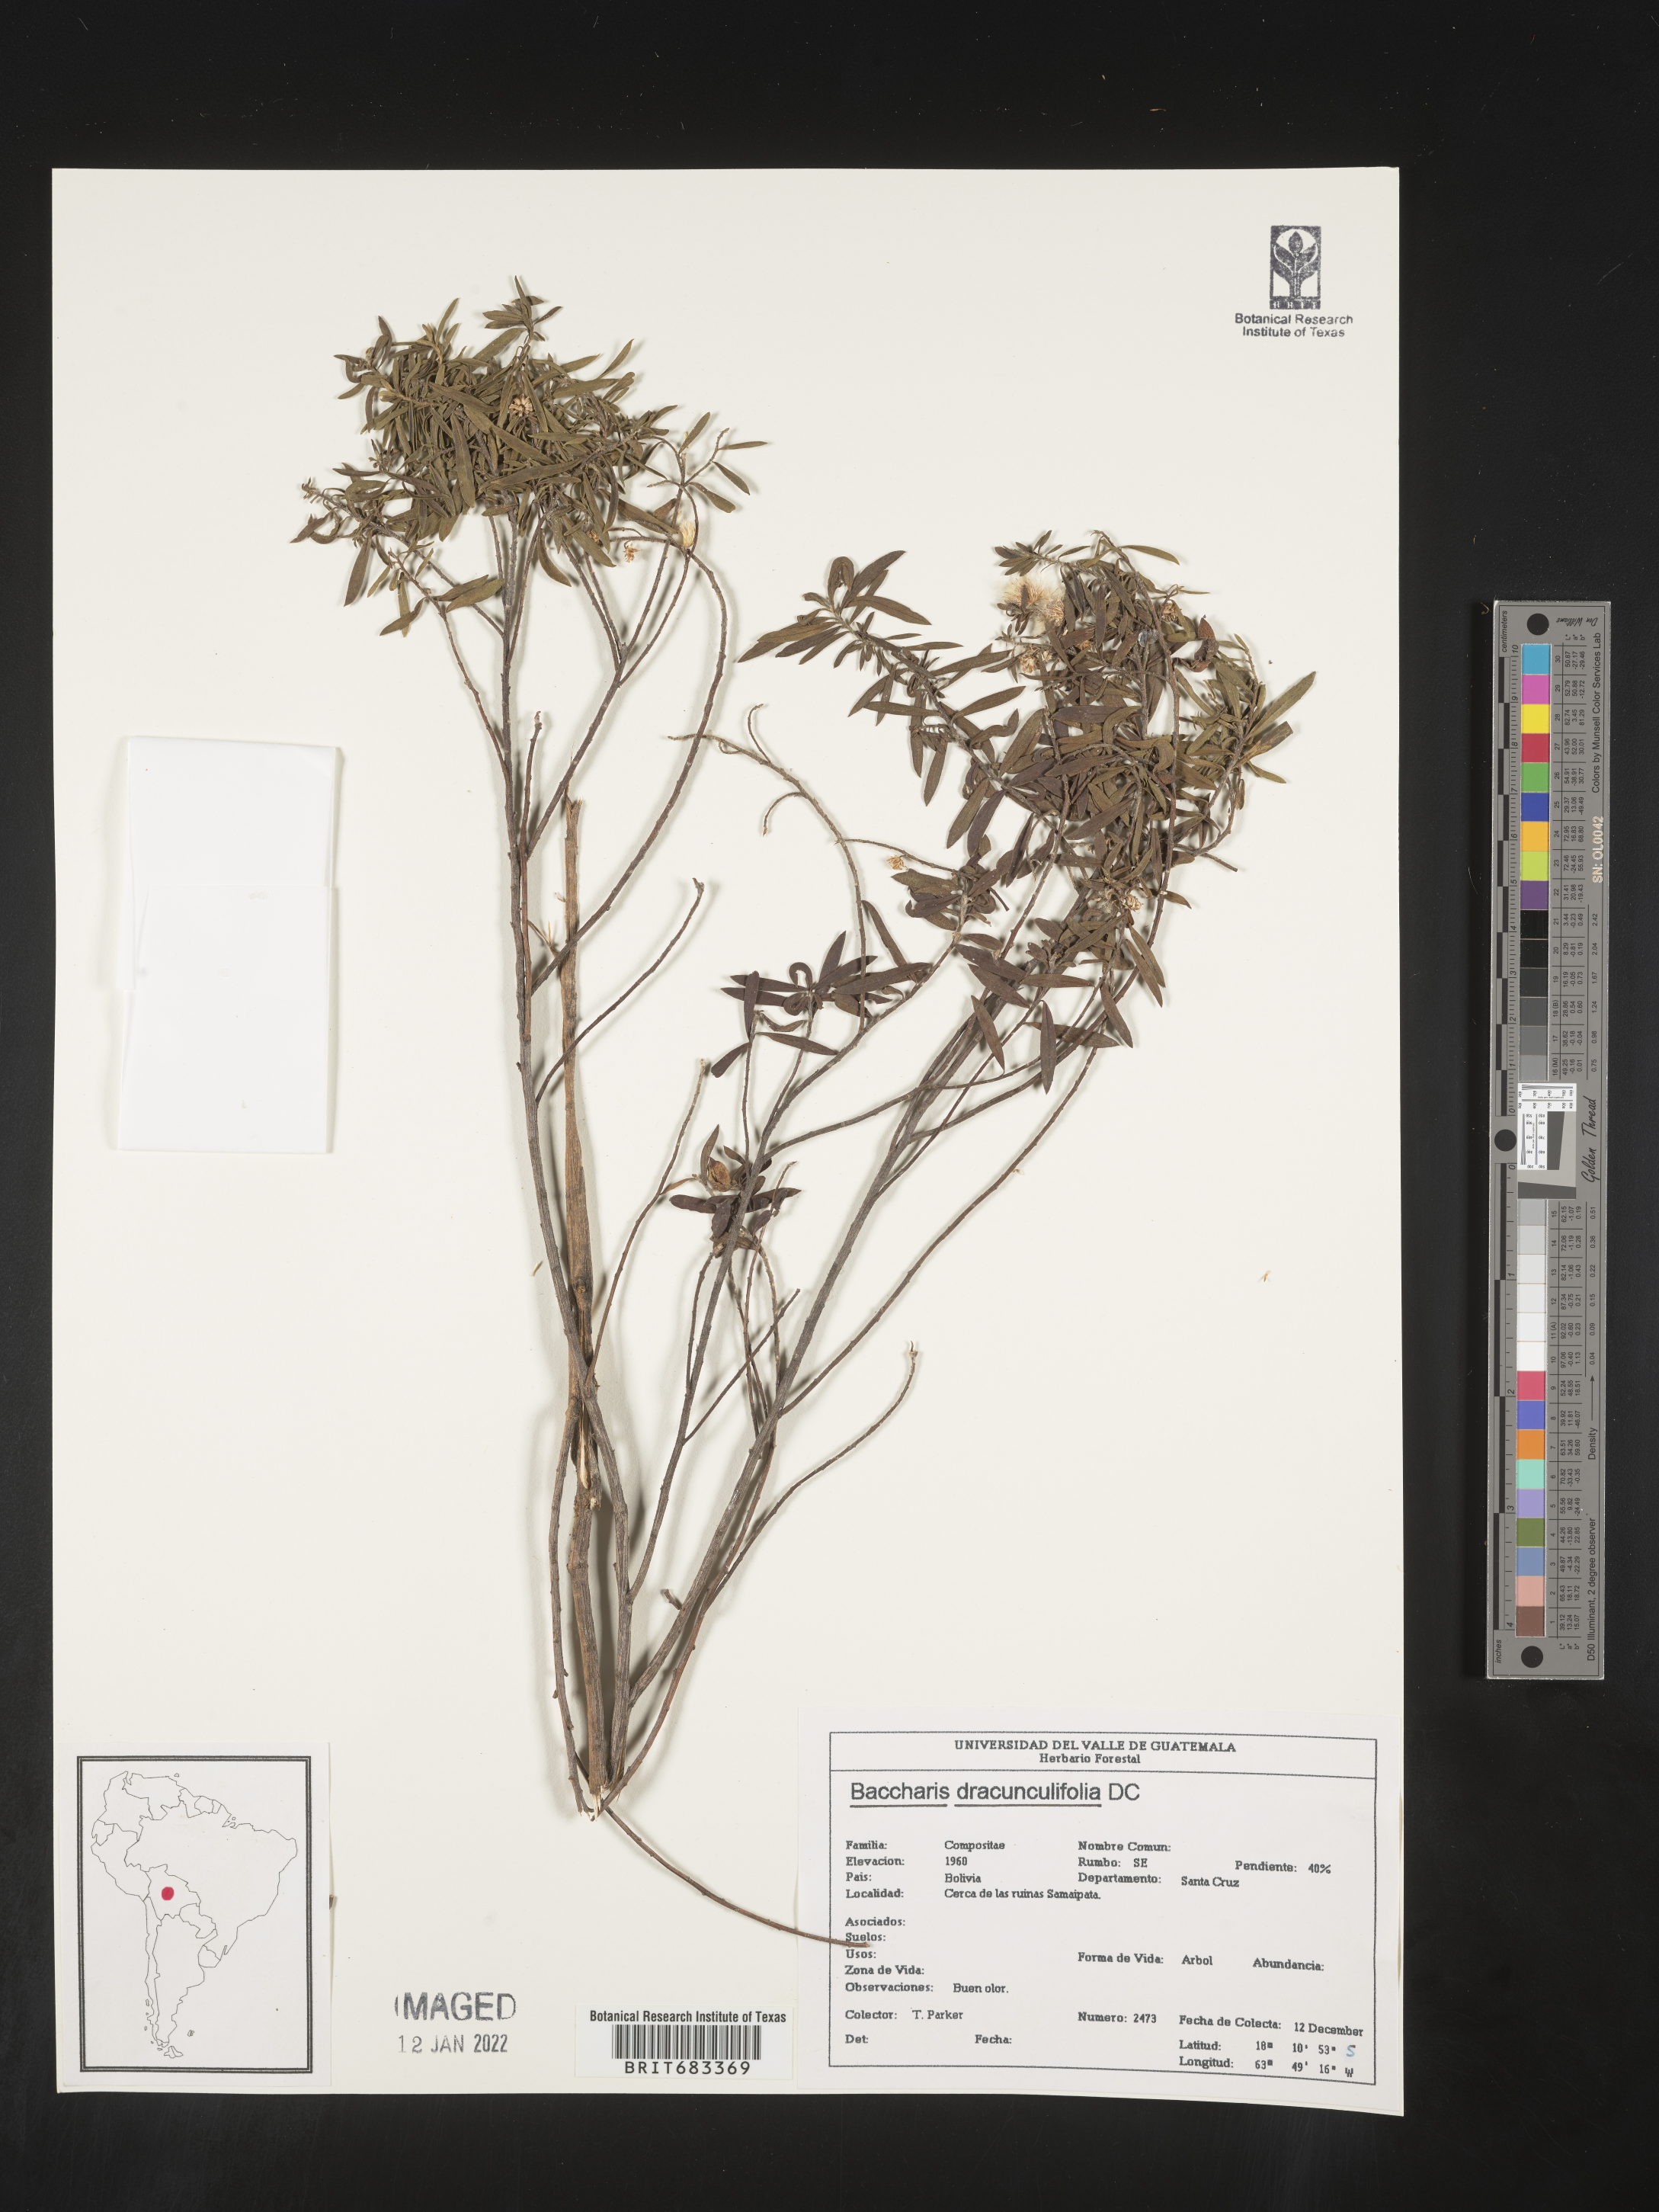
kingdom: Plantae
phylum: Tracheophyta
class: Magnoliopsida
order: Asterales
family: Asteraceae
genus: Baccharis
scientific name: Baccharis
